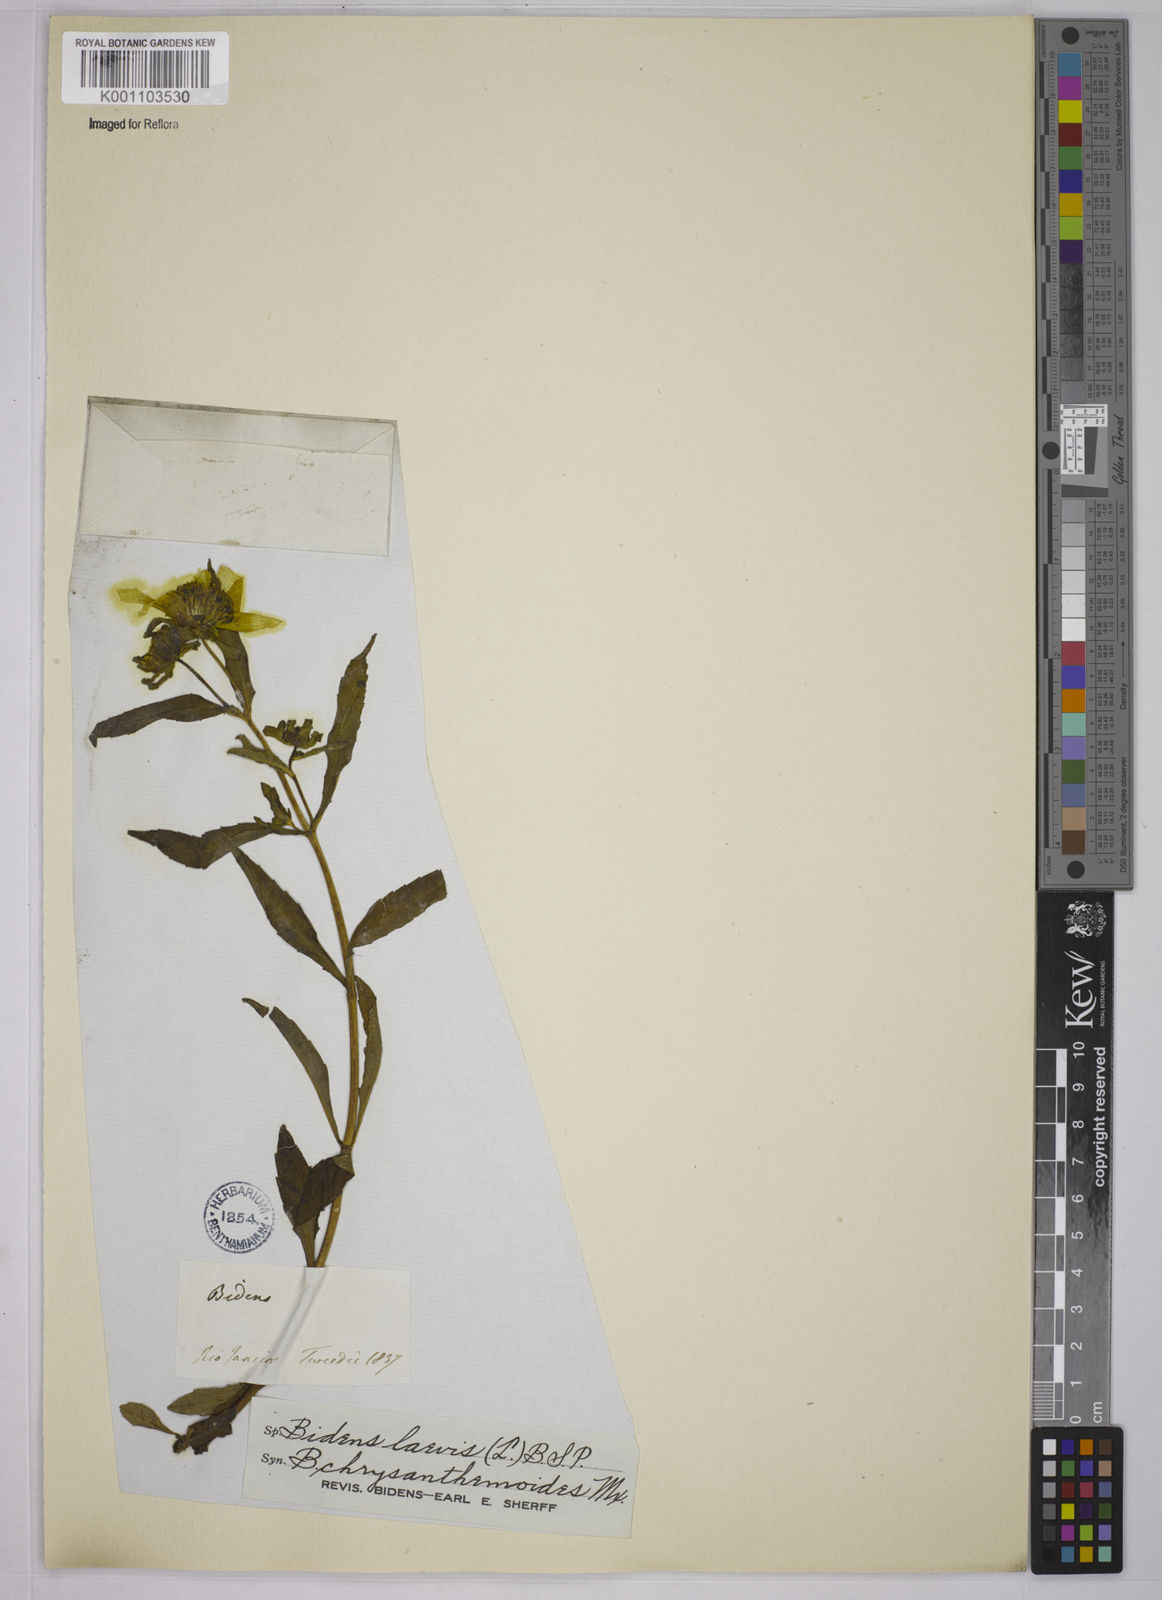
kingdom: Plantae
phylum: Tracheophyta
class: Magnoliopsida
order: Asterales
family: Asteraceae
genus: Bidens
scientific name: Bidens laevis
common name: Larger bur-marigold
